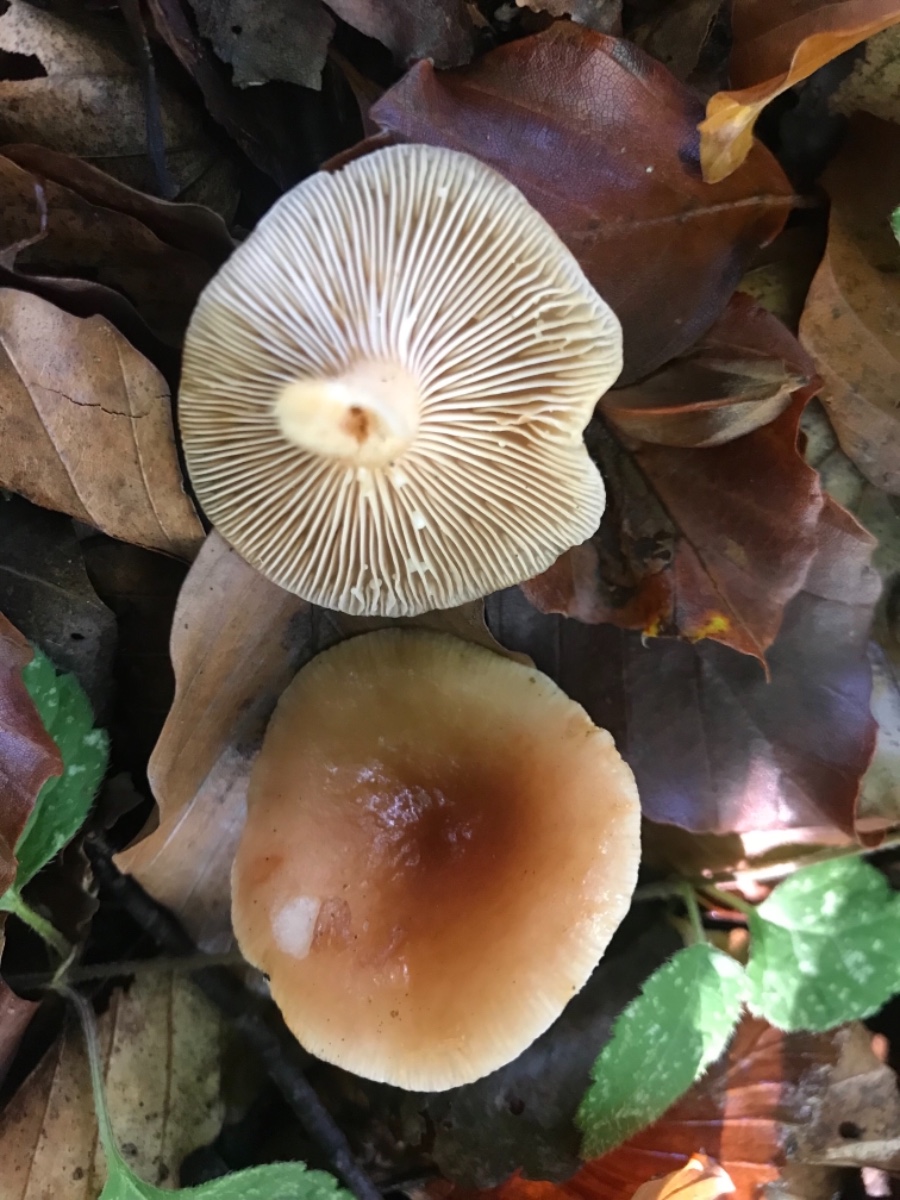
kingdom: Fungi
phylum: Basidiomycota
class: Agaricomycetes
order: Russulales
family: Russulaceae
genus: Lactarius
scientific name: Lactarius subdulcis
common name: sødlig mælkehat
